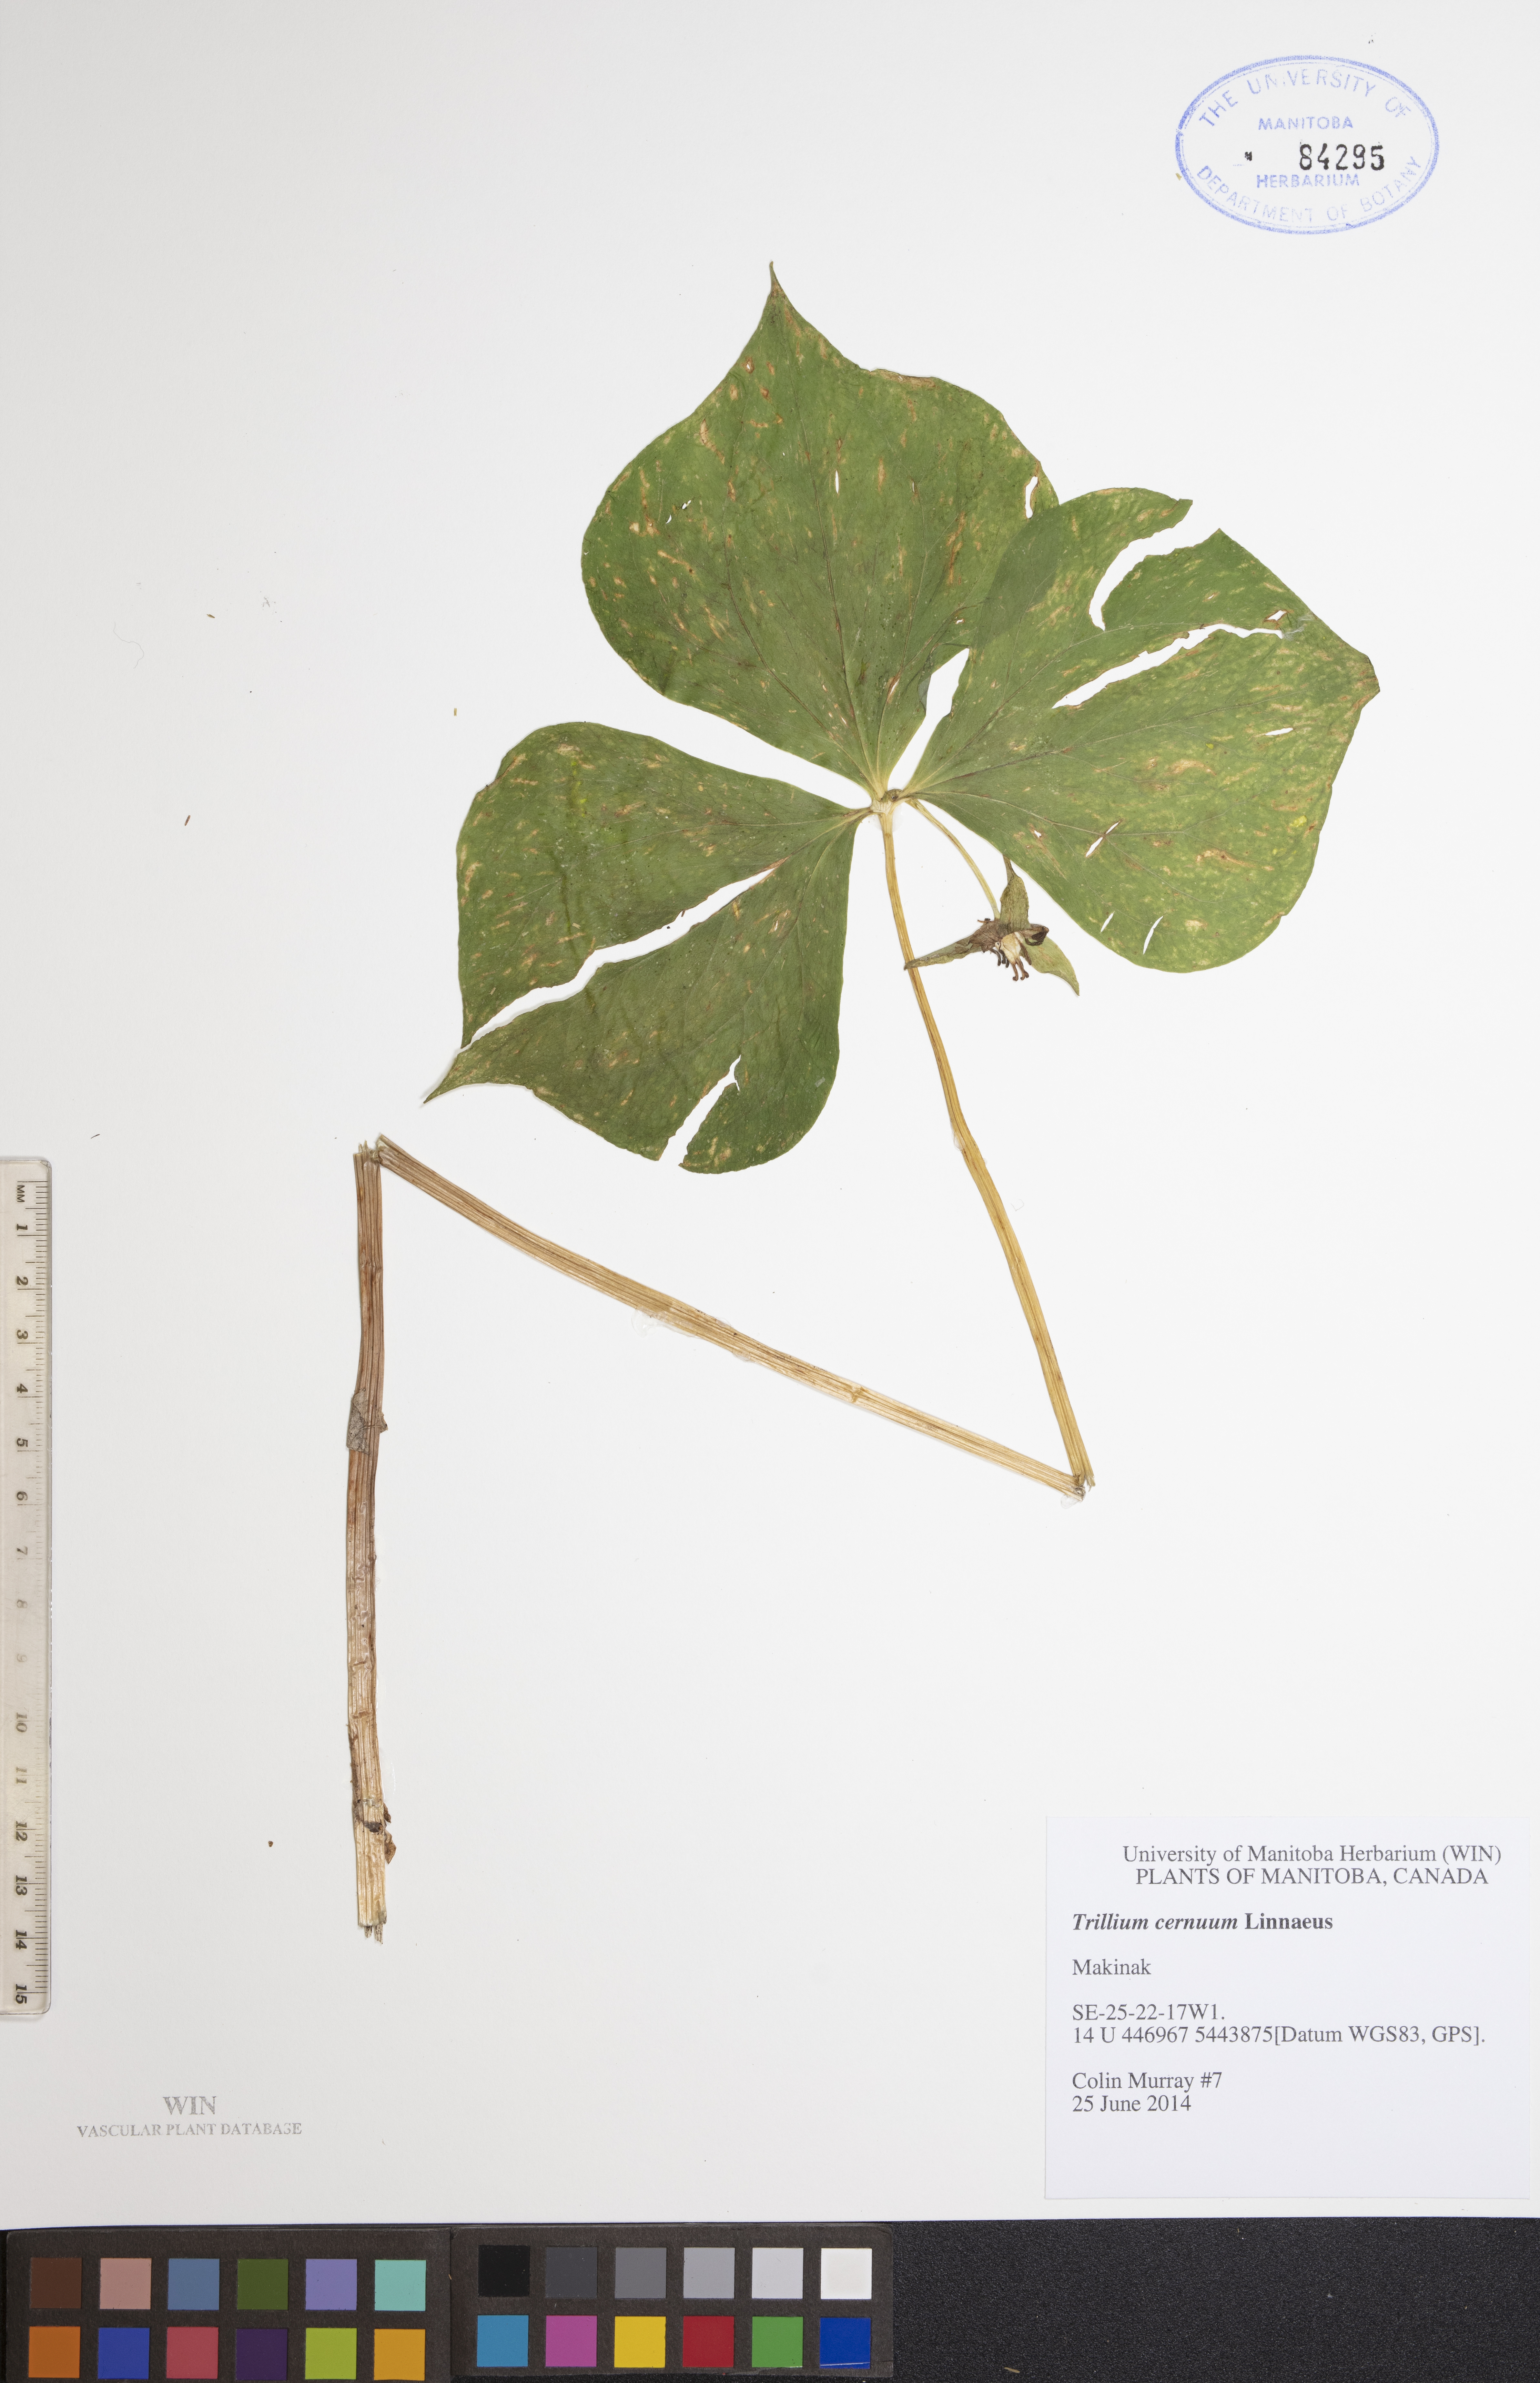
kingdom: Plantae
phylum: Tracheophyta
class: Liliopsida
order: Liliales
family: Melanthiaceae
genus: Trillium
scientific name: Trillium cernuum
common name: Nodding trillium
